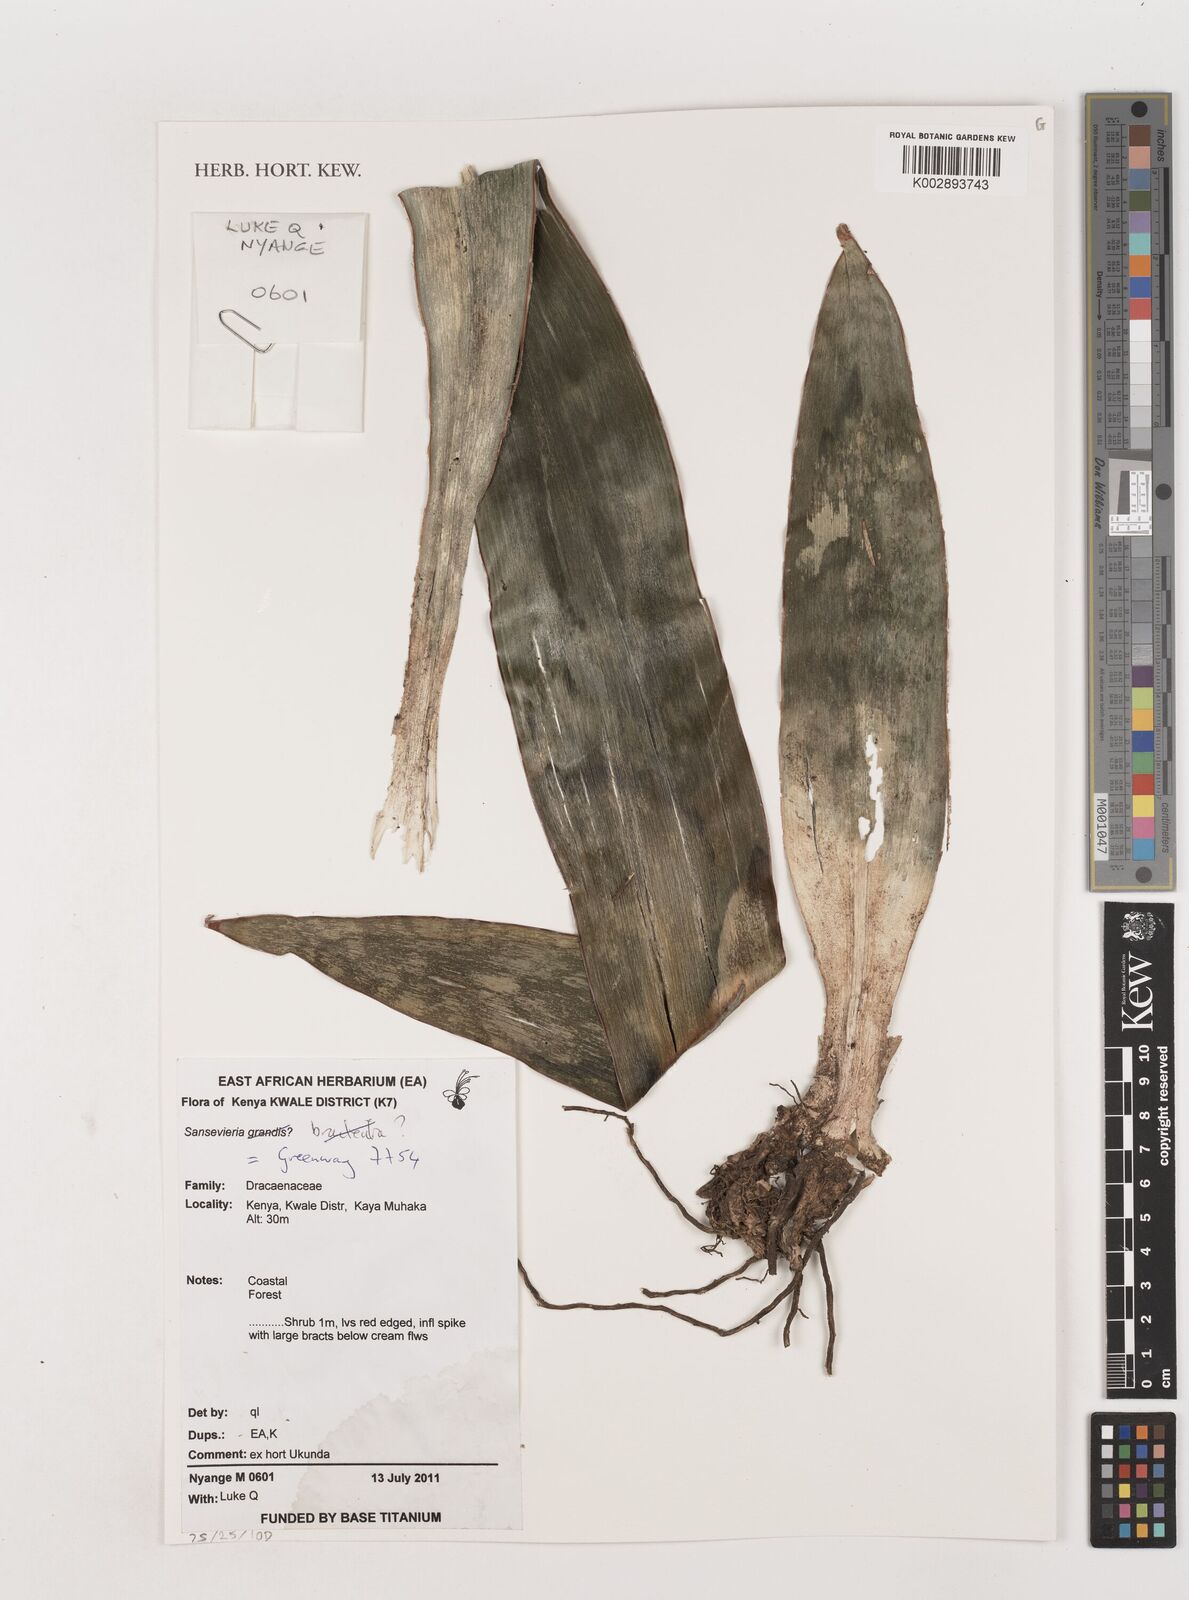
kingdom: Plantae
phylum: Tracheophyta
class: Liliopsida
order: Asparagales
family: Asparagaceae
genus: Dracaena
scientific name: Dracaena
